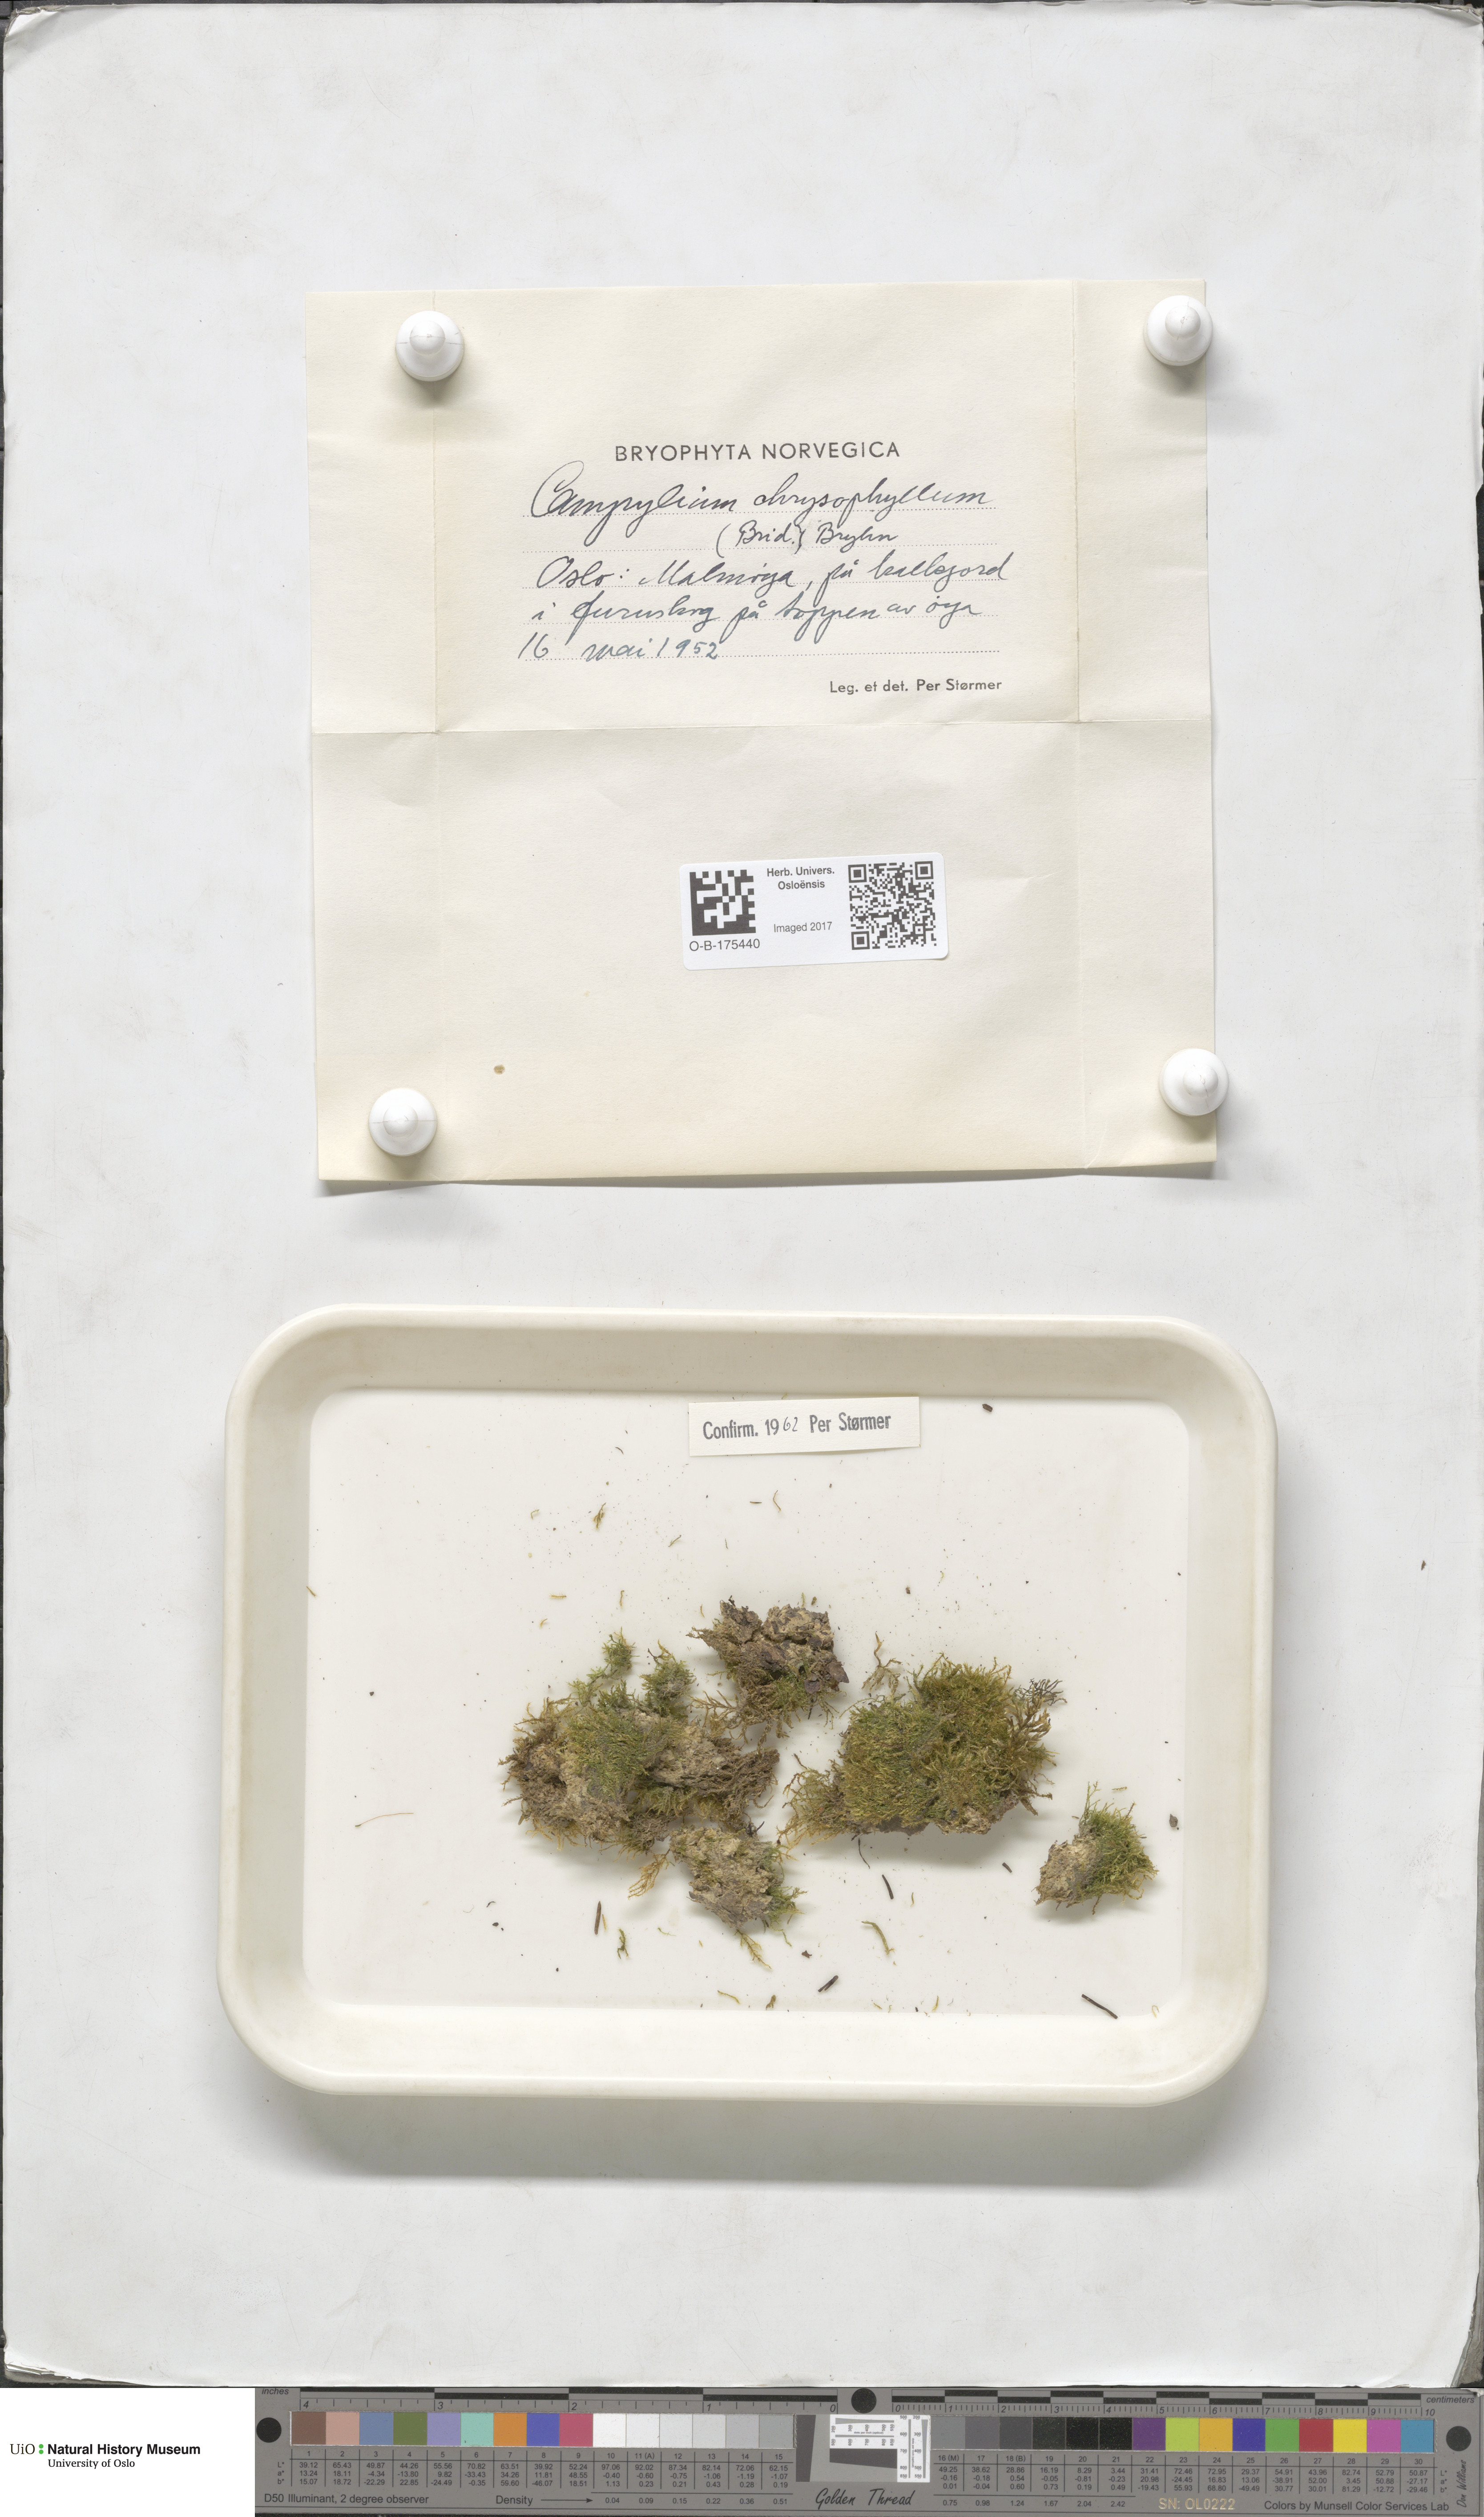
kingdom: Plantae
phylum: Bryophyta
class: Bryopsida
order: Hypnales
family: Amblystegiaceae
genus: Campylium
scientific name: Campylium chrysophyllum
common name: Goldenleaf campylium moss
